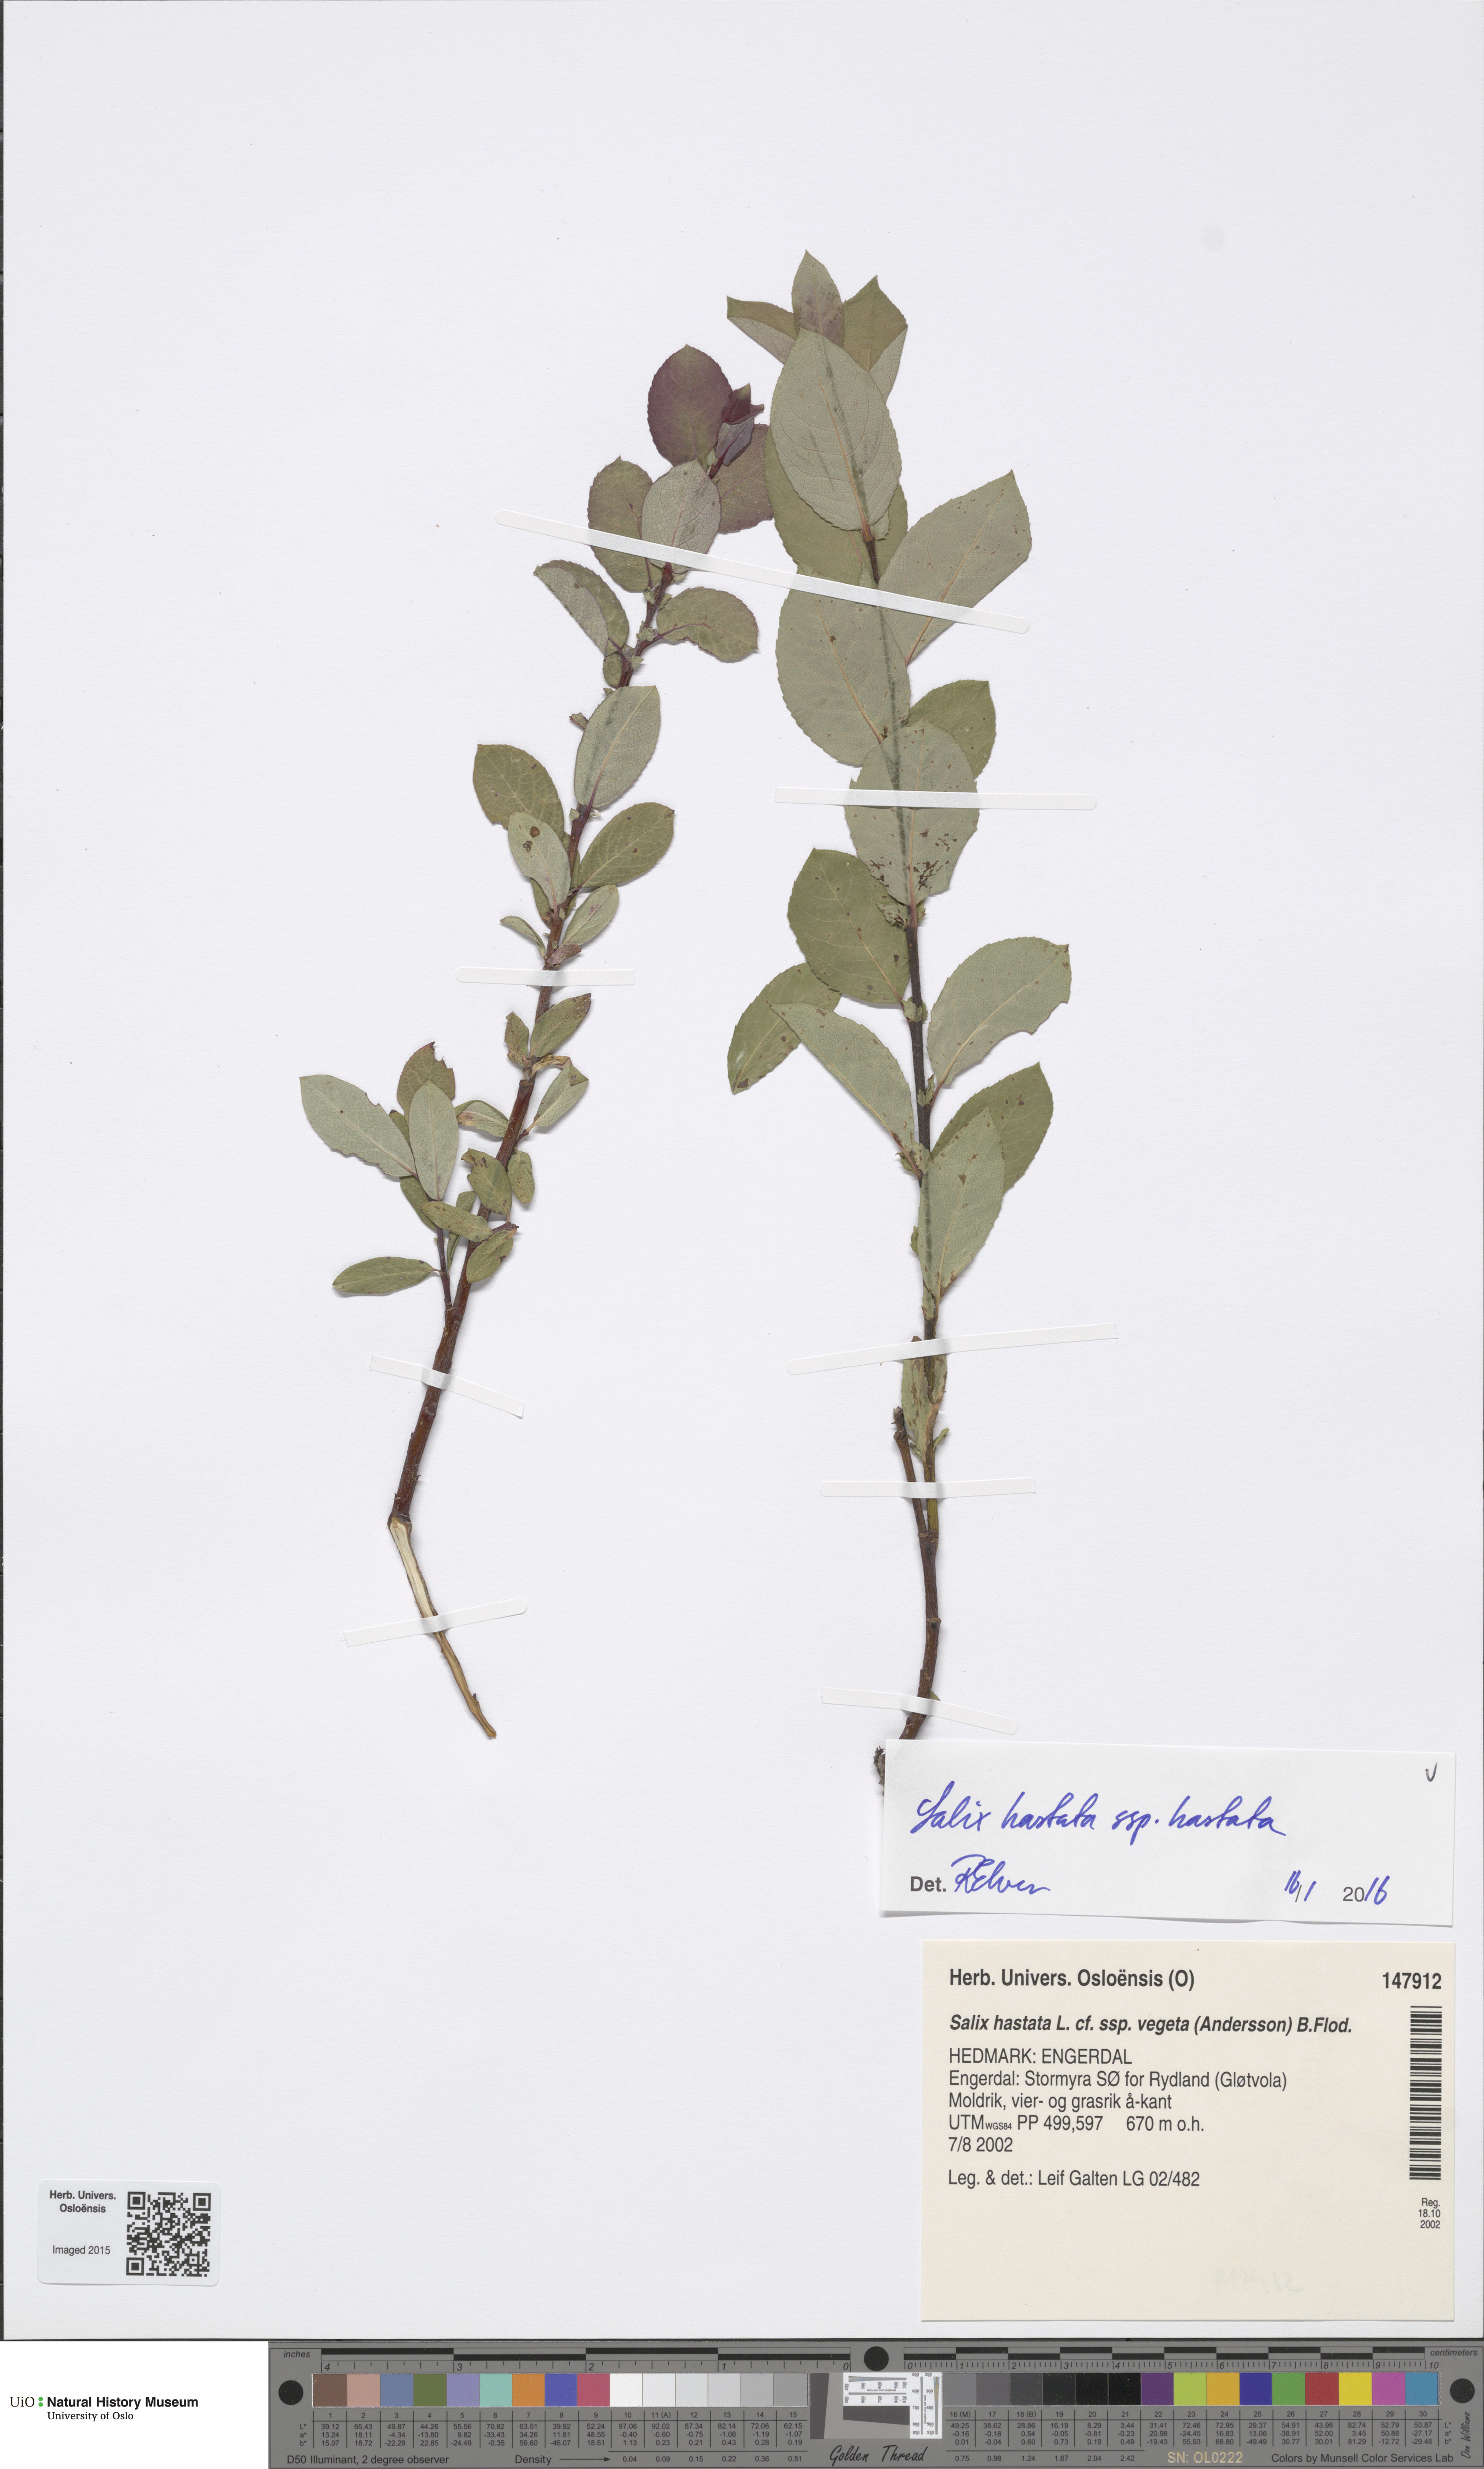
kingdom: Plantae
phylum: Tracheophyta
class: Magnoliopsida
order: Malpighiales
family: Salicaceae
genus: Salix
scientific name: Salix hastata
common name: Halberd willow
